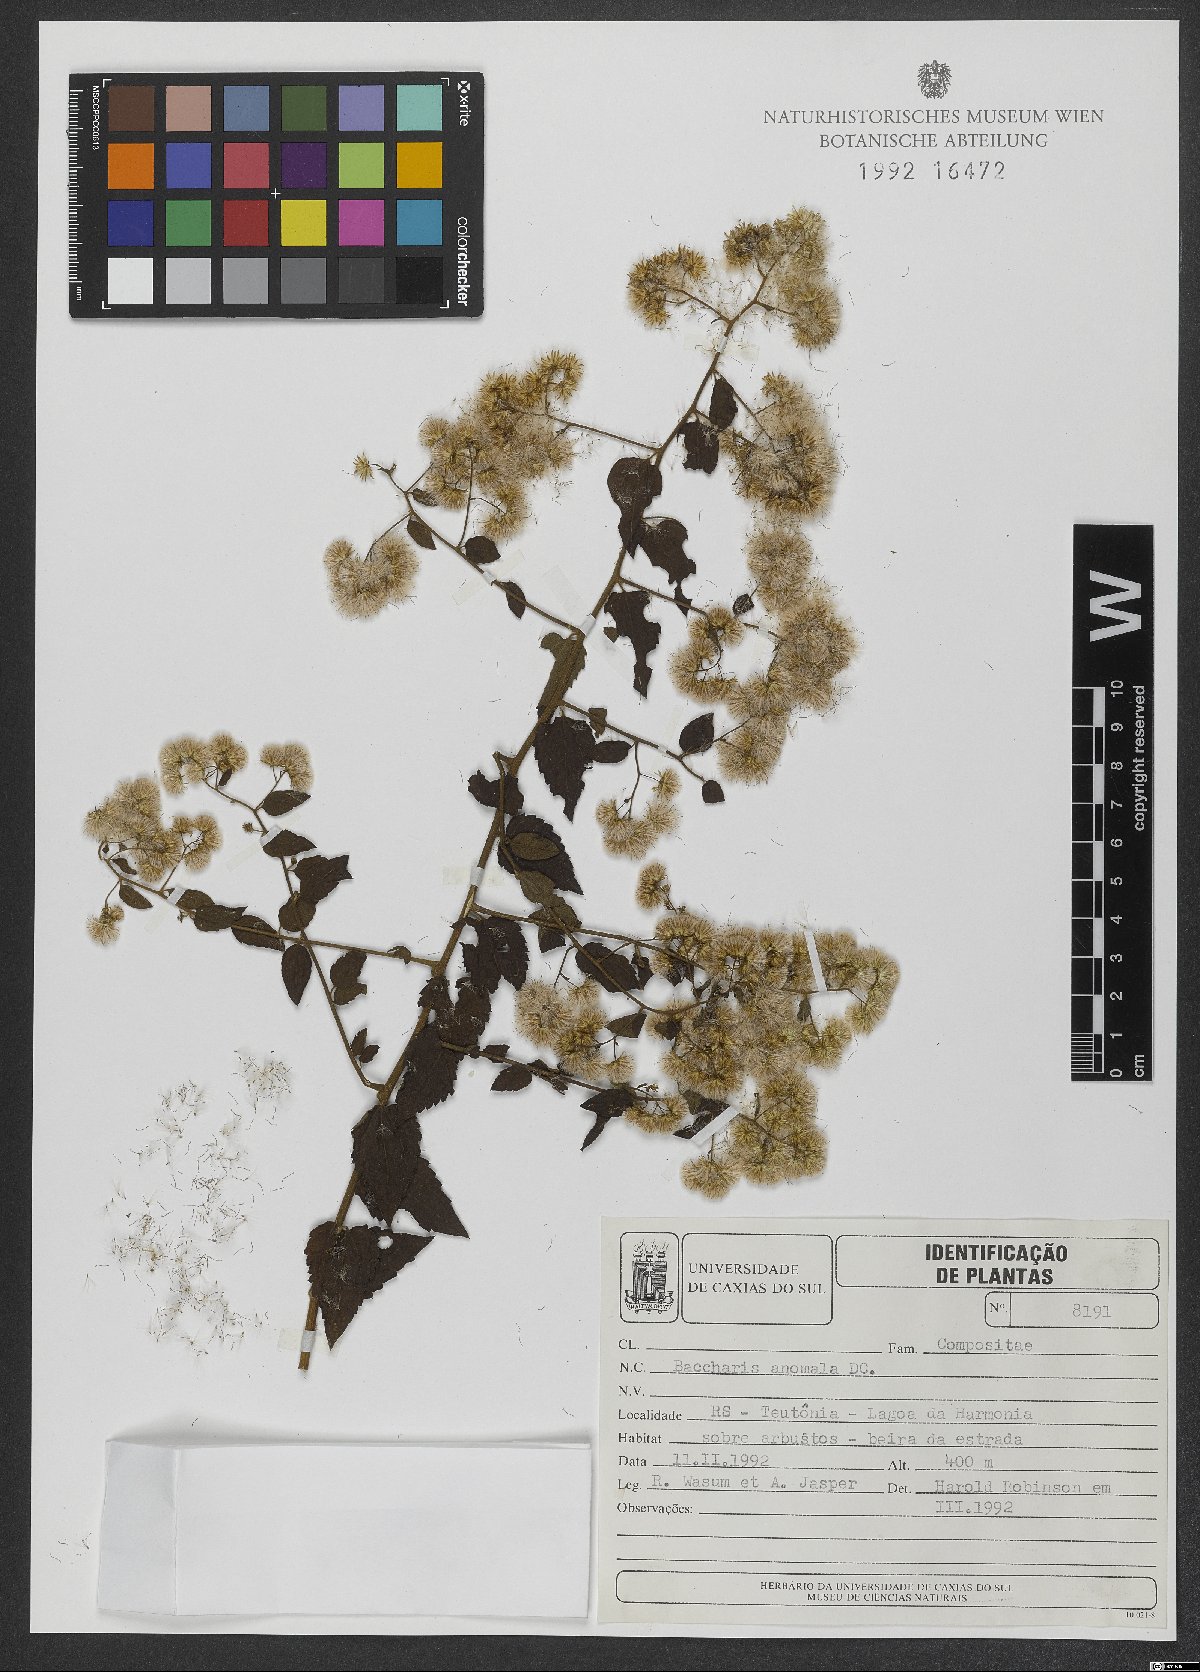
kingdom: Plantae
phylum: Tracheophyta
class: Magnoliopsida
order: Asterales
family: Asteraceae
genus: Baccharis
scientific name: Baccharis anomala
